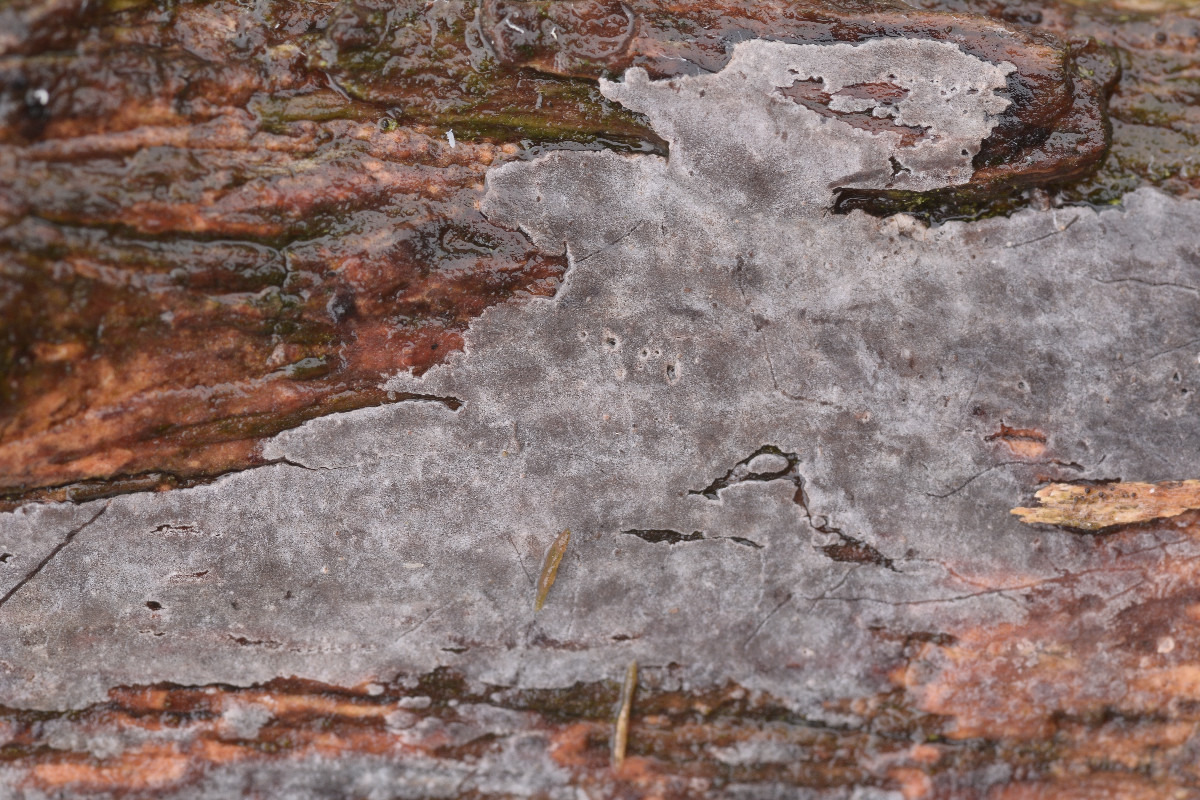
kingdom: Fungi
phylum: Basidiomycota
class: Agaricomycetes
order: Russulales
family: Peniophoraceae
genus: Peniophora
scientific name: Peniophora lycii
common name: grynet voksskind
